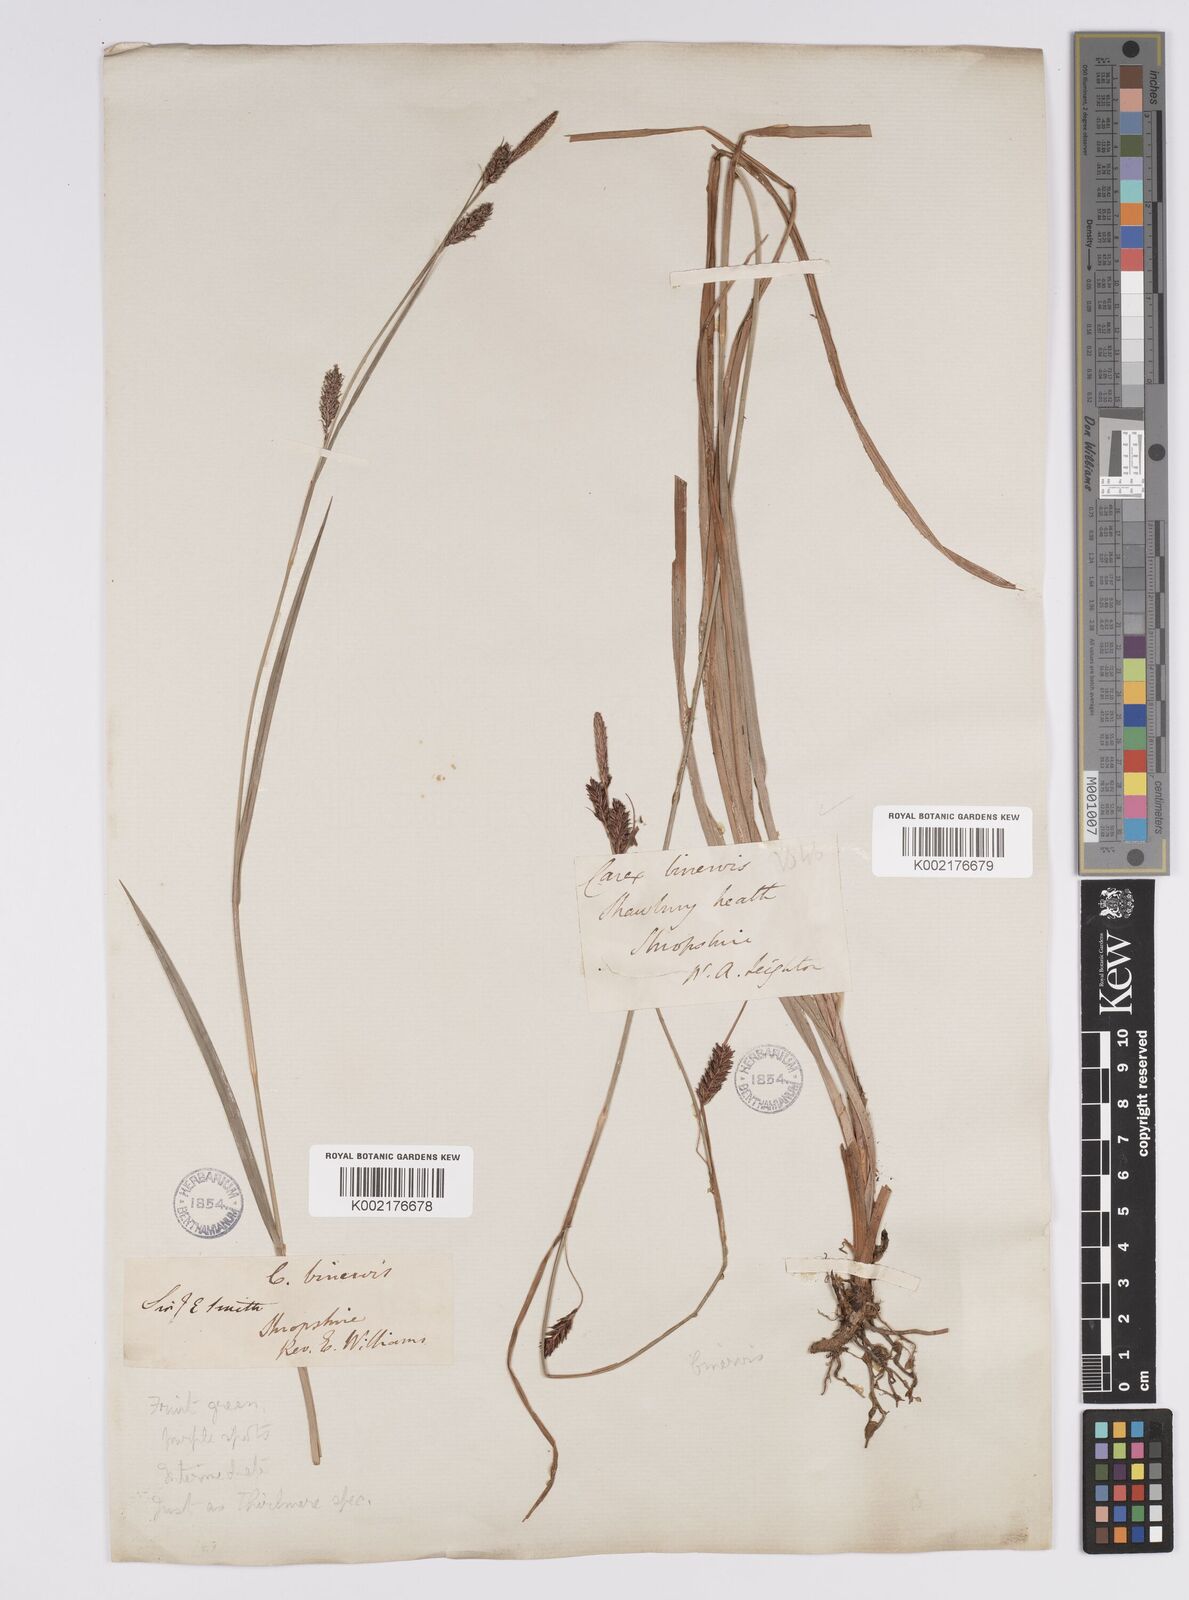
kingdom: Plantae
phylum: Tracheophyta
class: Liliopsida
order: Poales
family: Cyperaceae
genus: Carex
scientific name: Carex binervis
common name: Green-ribbed sedge
